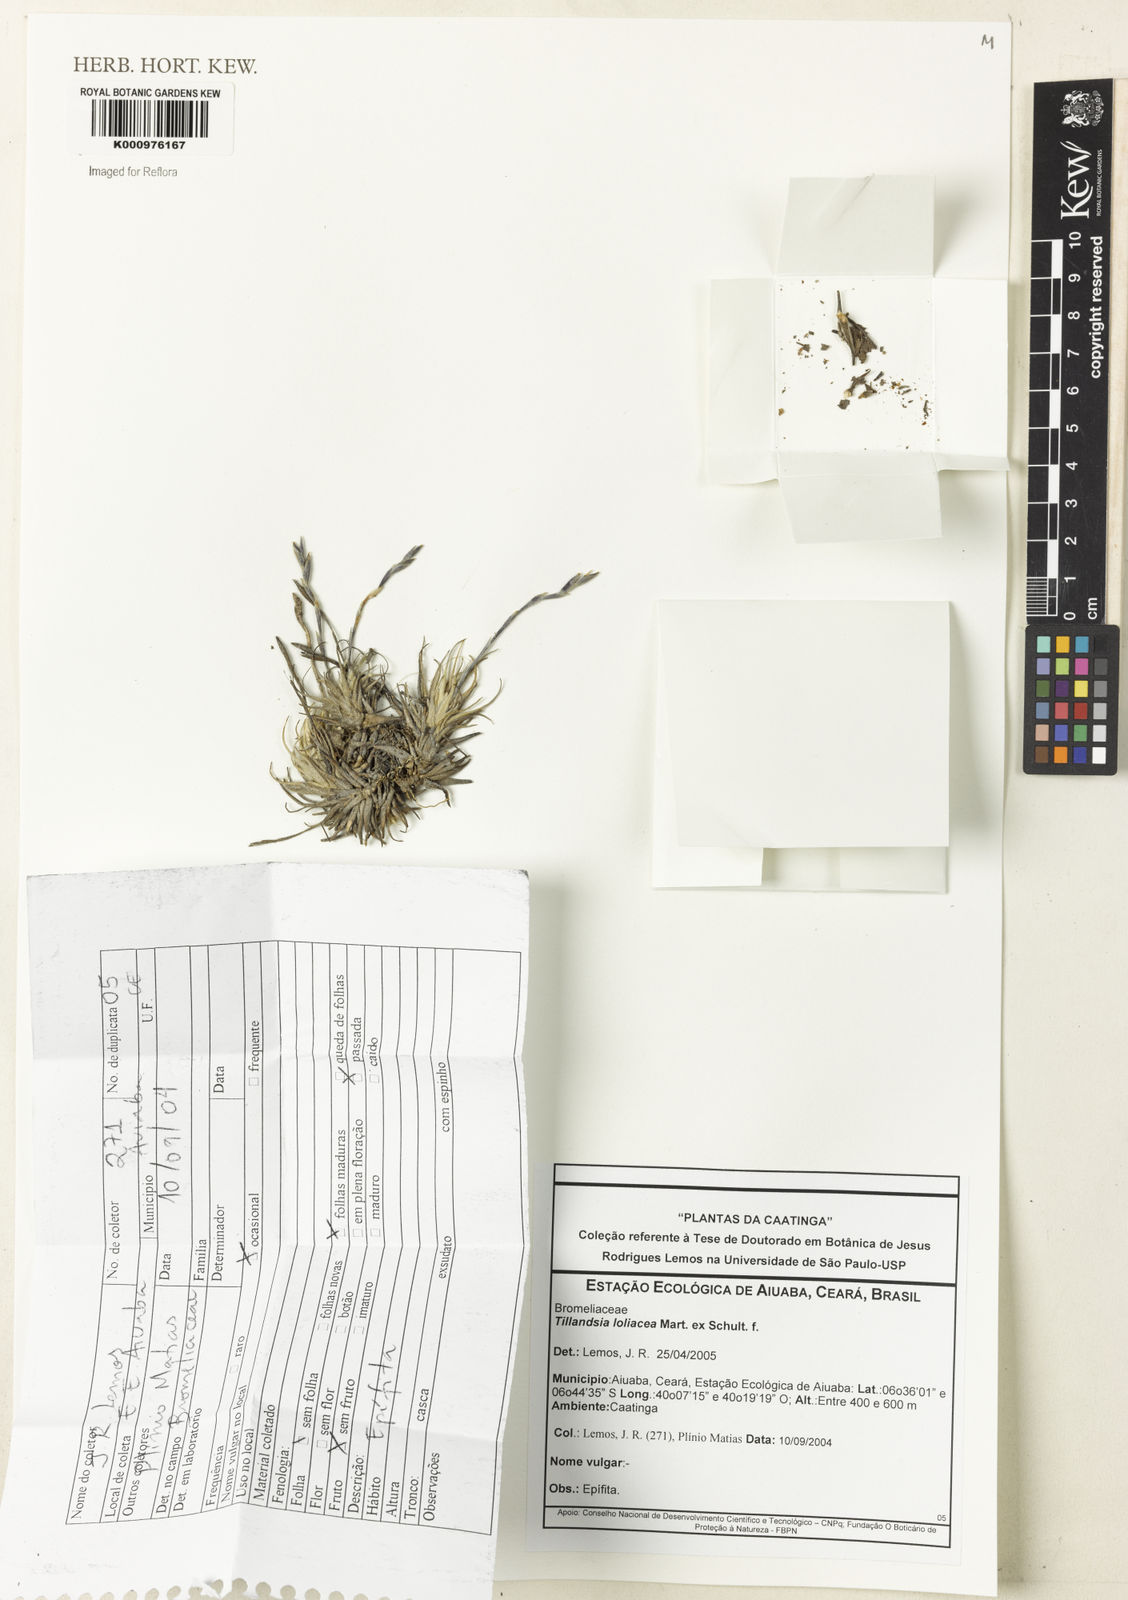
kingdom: Plantae
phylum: Tracheophyta
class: Liliopsida
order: Poales
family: Bromeliaceae
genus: Tillandsia
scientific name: Tillandsia loliacea
